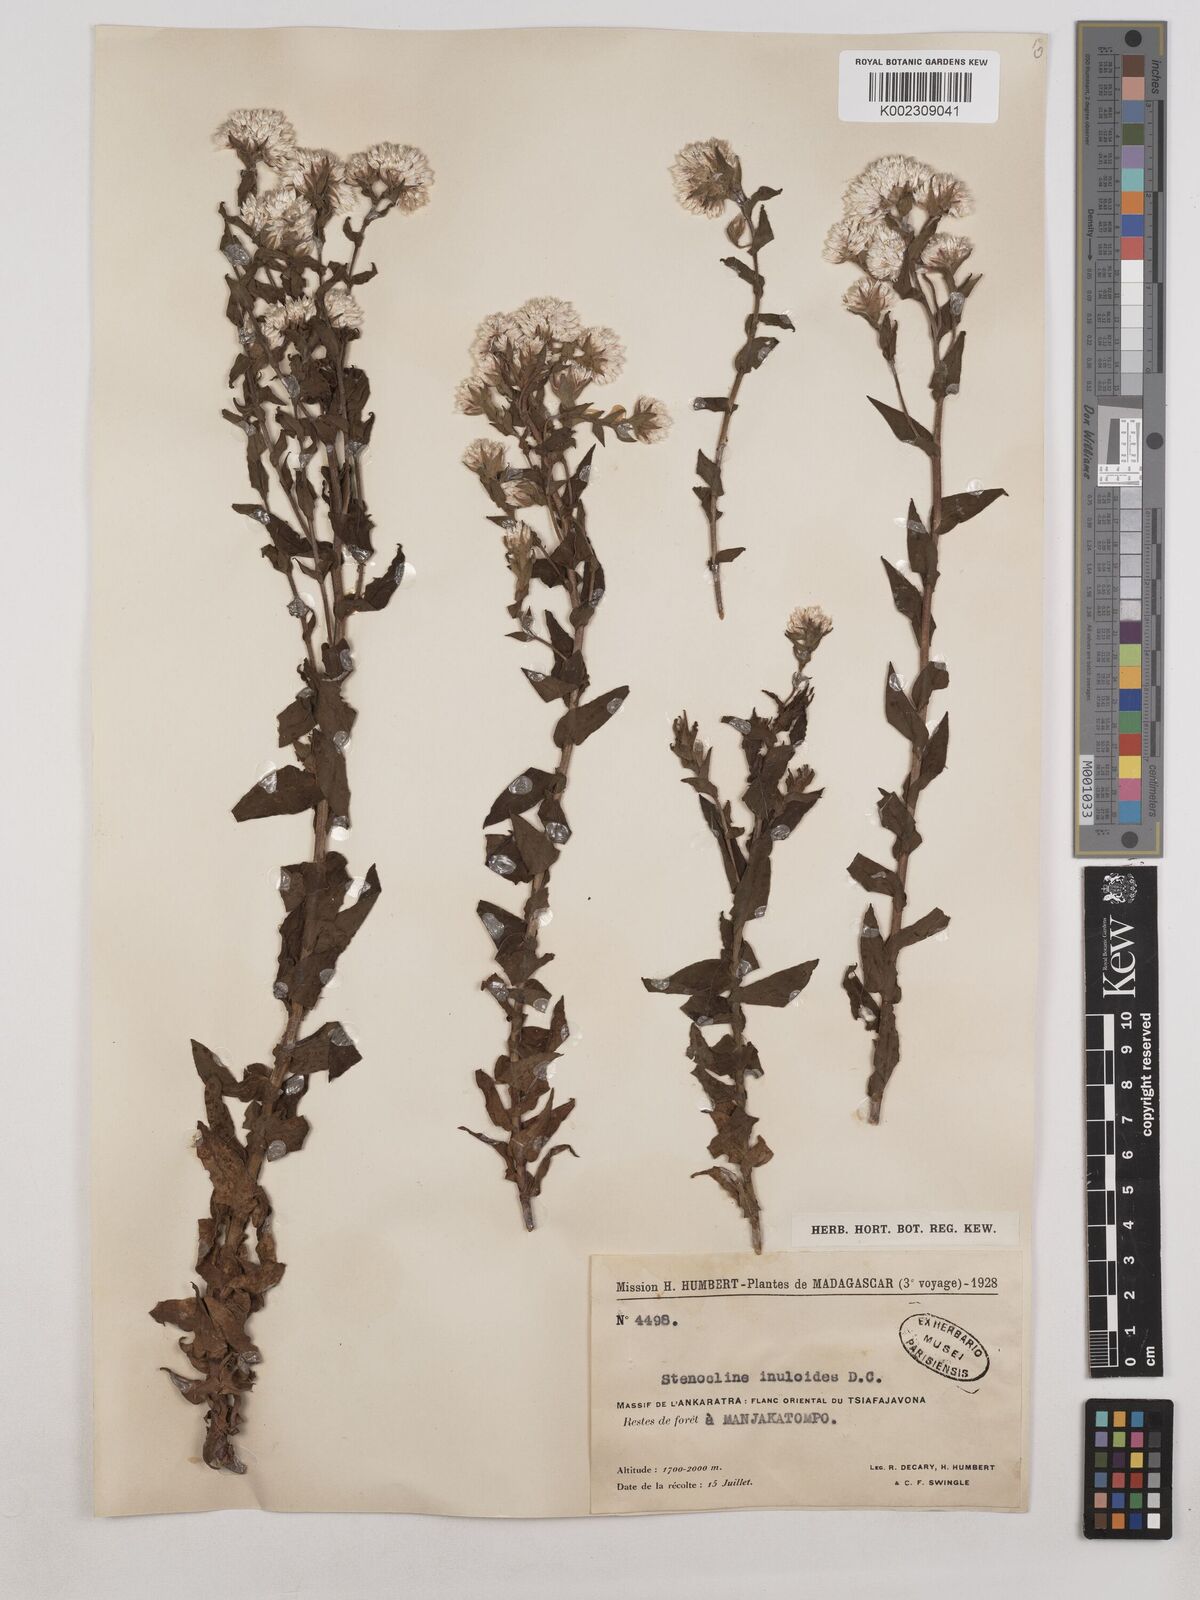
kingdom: Plantae
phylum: Tracheophyta
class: Magnoliopsida
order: Asterales
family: Asteraceae
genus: Stenocline
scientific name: Stenocline inuloides
